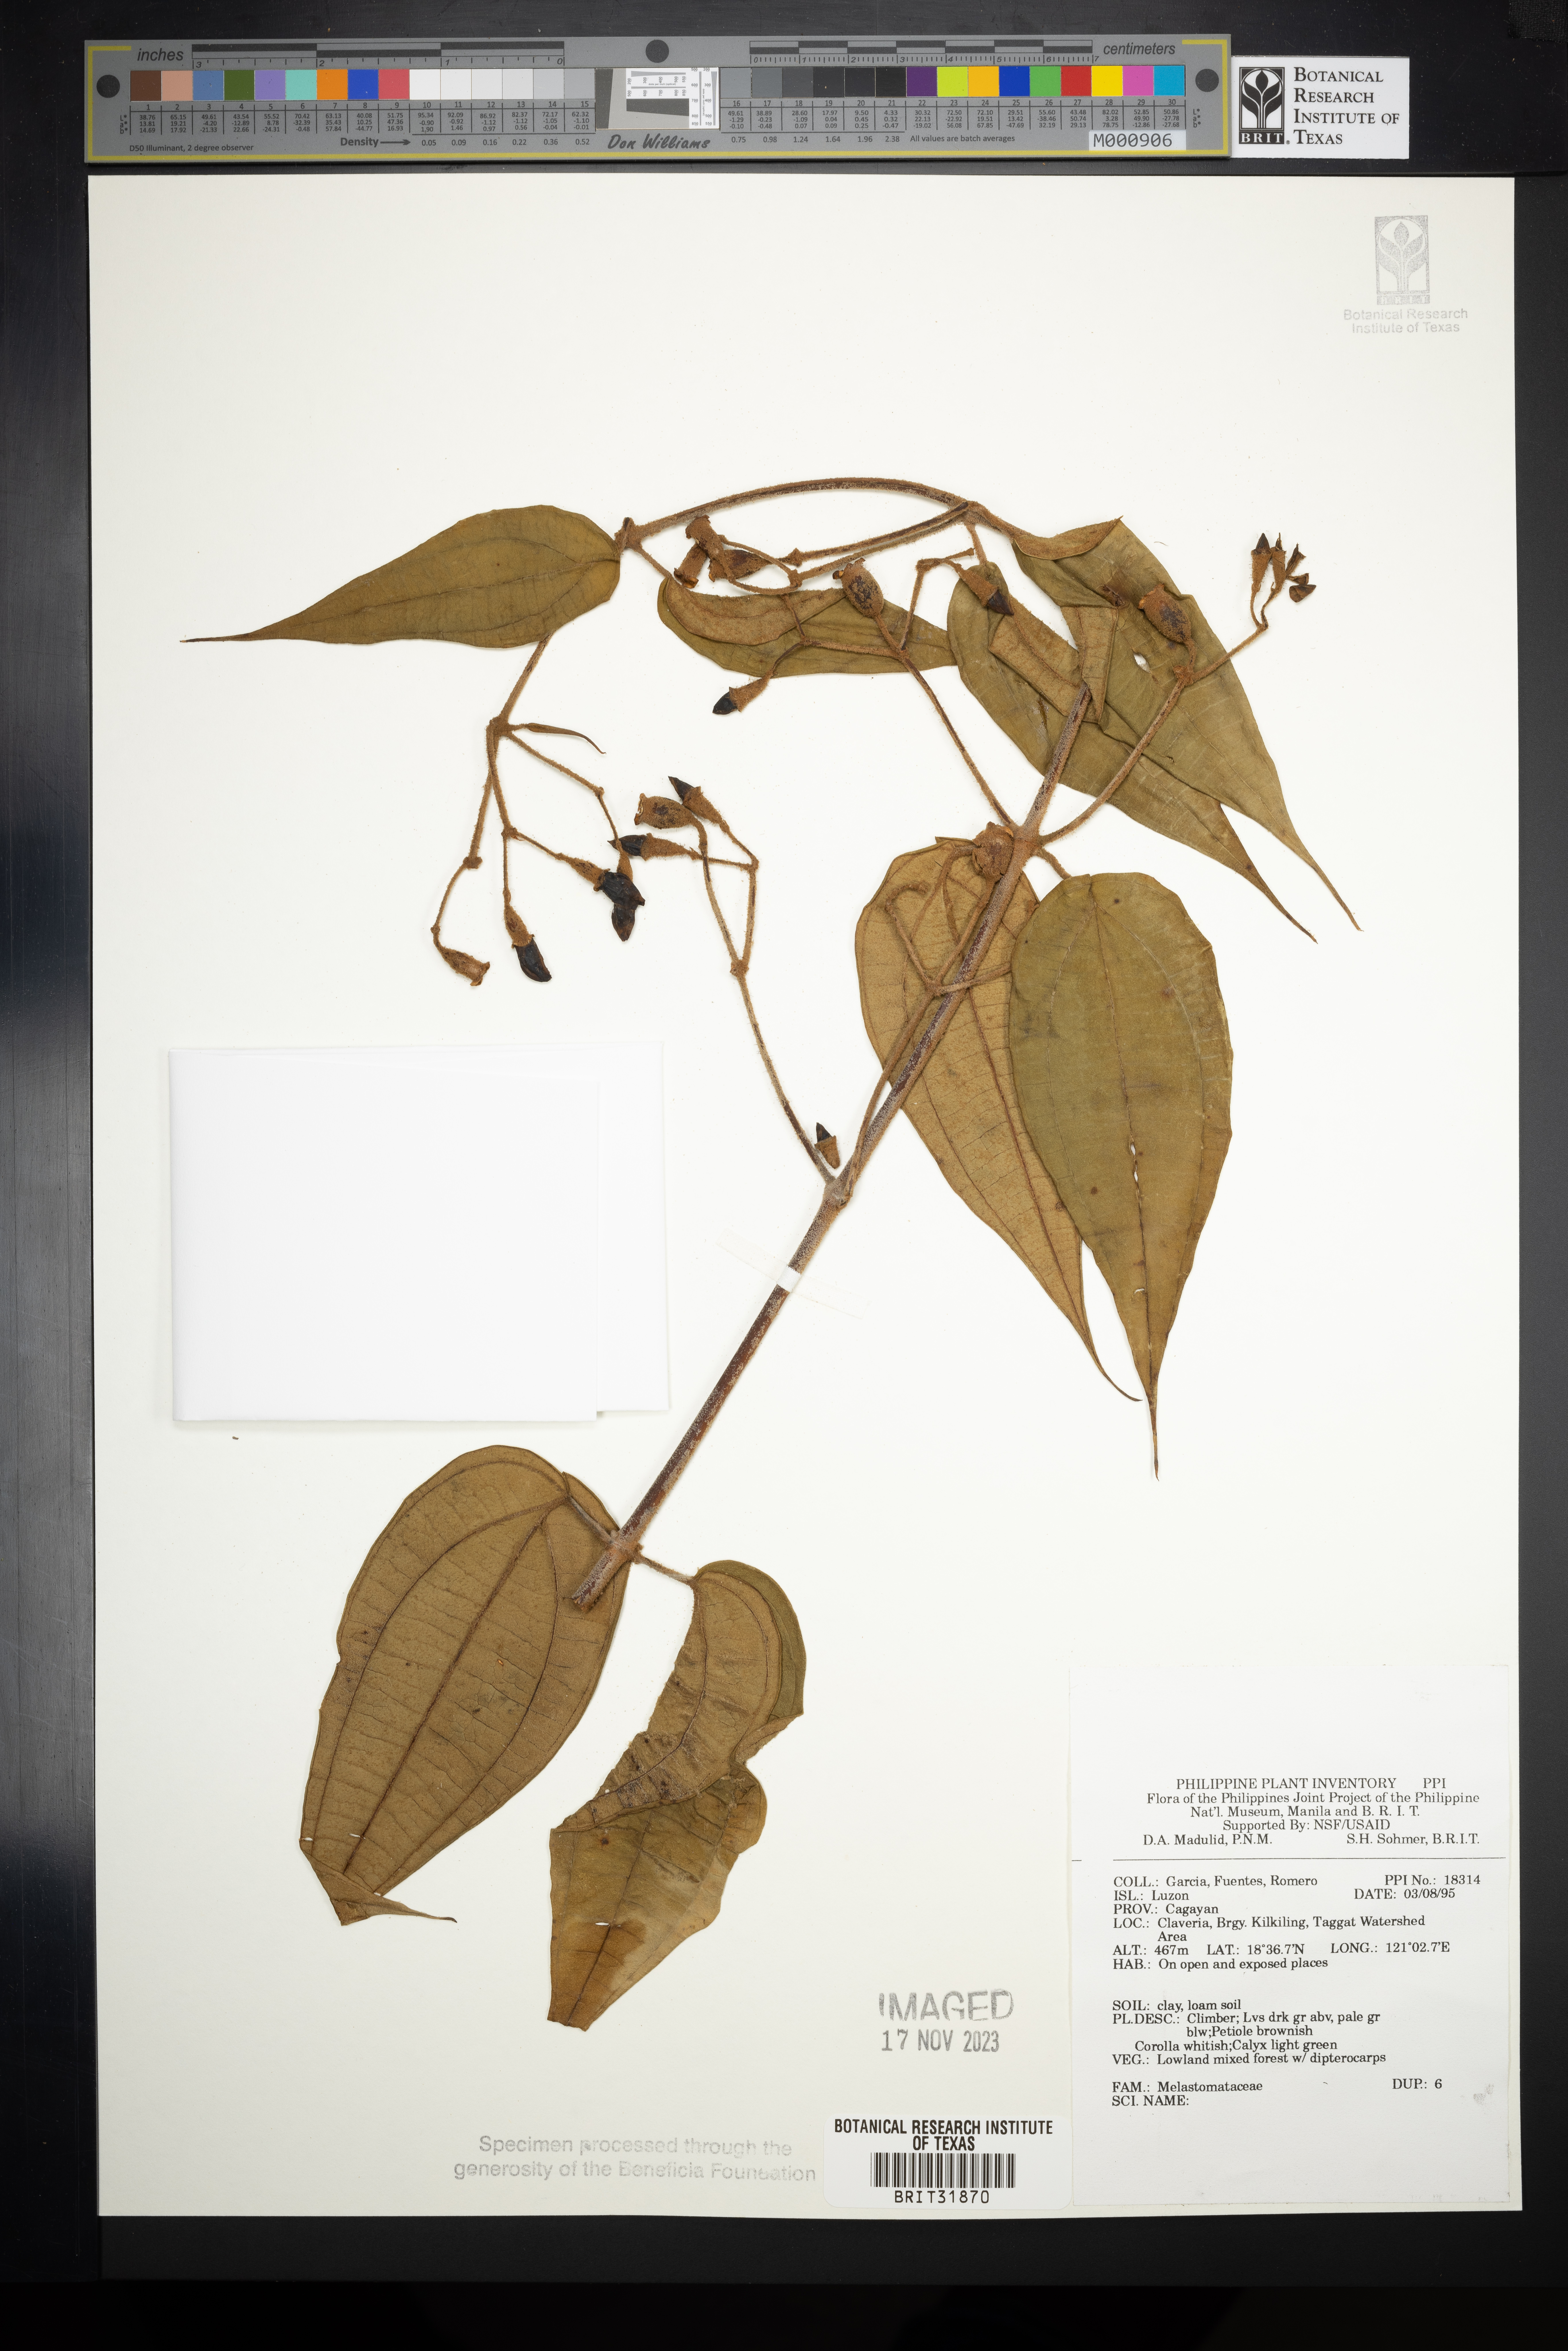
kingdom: Plantae
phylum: Tracheophyta
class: Magnoliopsida
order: Myrtales
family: Melastomataceae
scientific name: Melastomataceae
